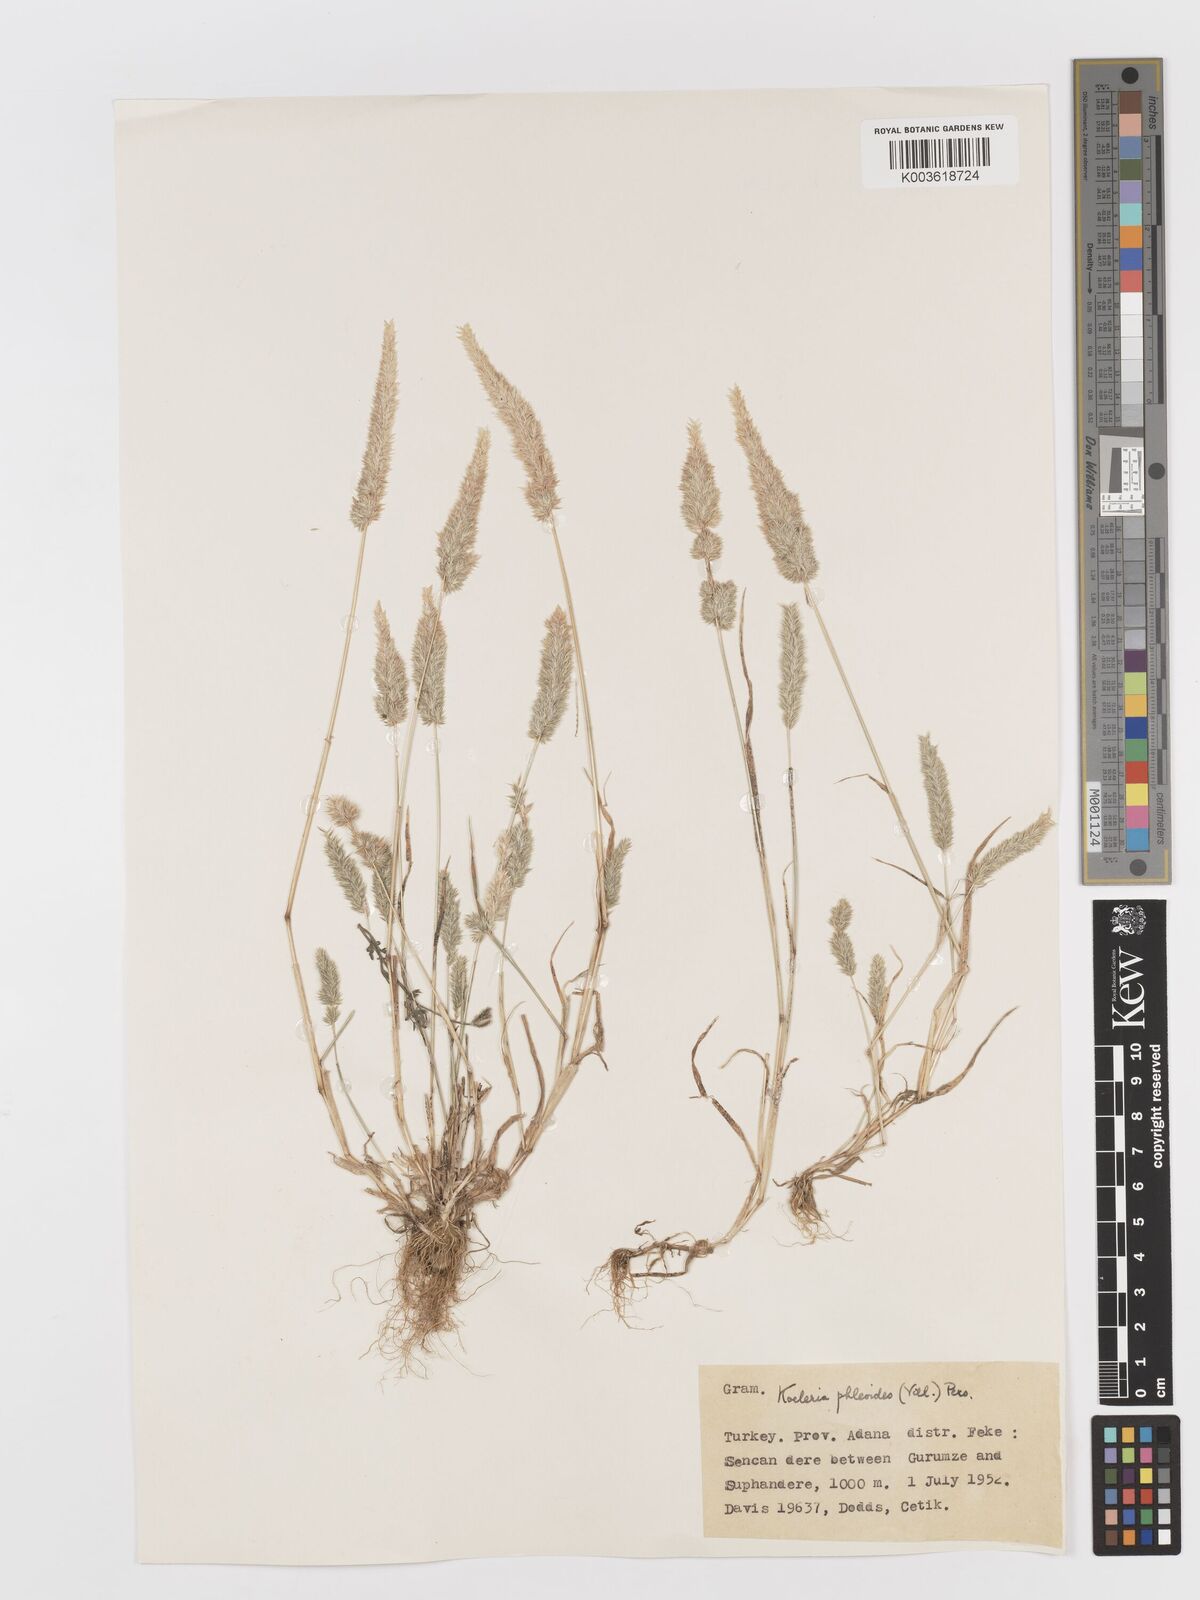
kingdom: Plantae
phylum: Tracheophyta
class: Liliopsida
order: Poales
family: Poaceae
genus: Rostraria
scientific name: Rostraria cristata
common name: Mediterranean hair-grass
